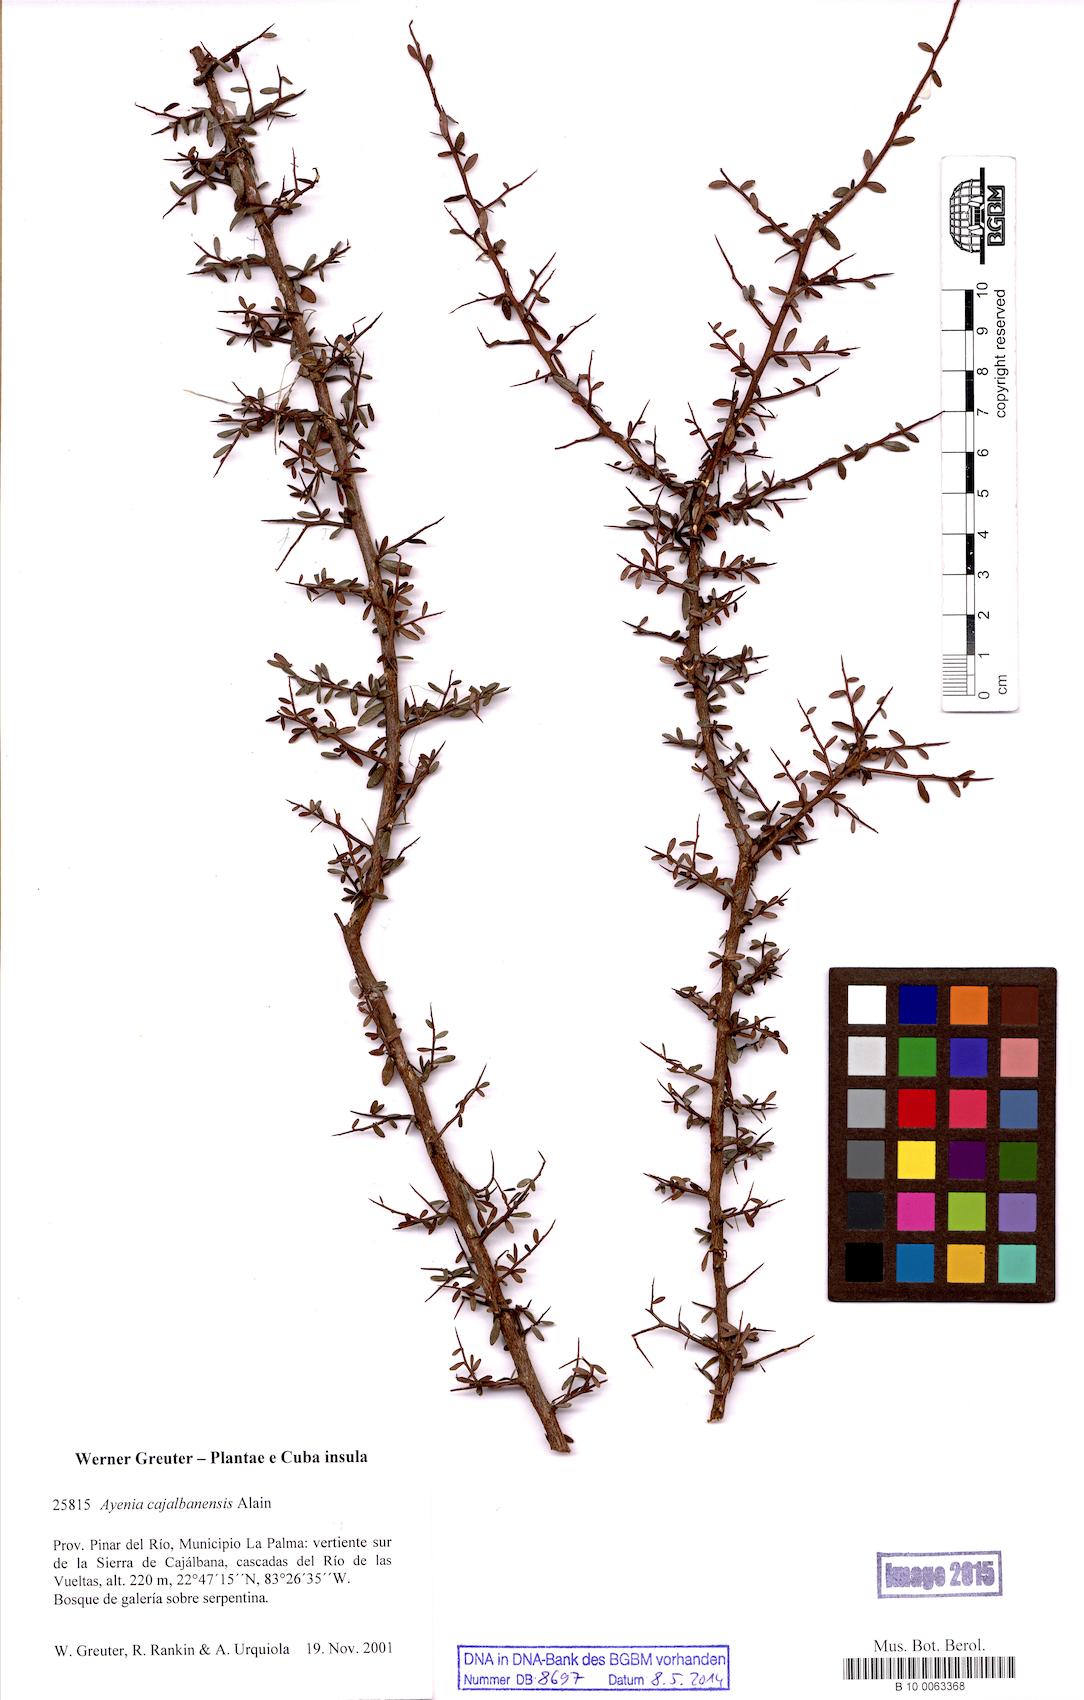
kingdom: Plantae
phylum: Tracheophyta
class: Magnoliopsida
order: Malvales
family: Malvaceae
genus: Ayenia
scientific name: Ayenia cajalbanensis
